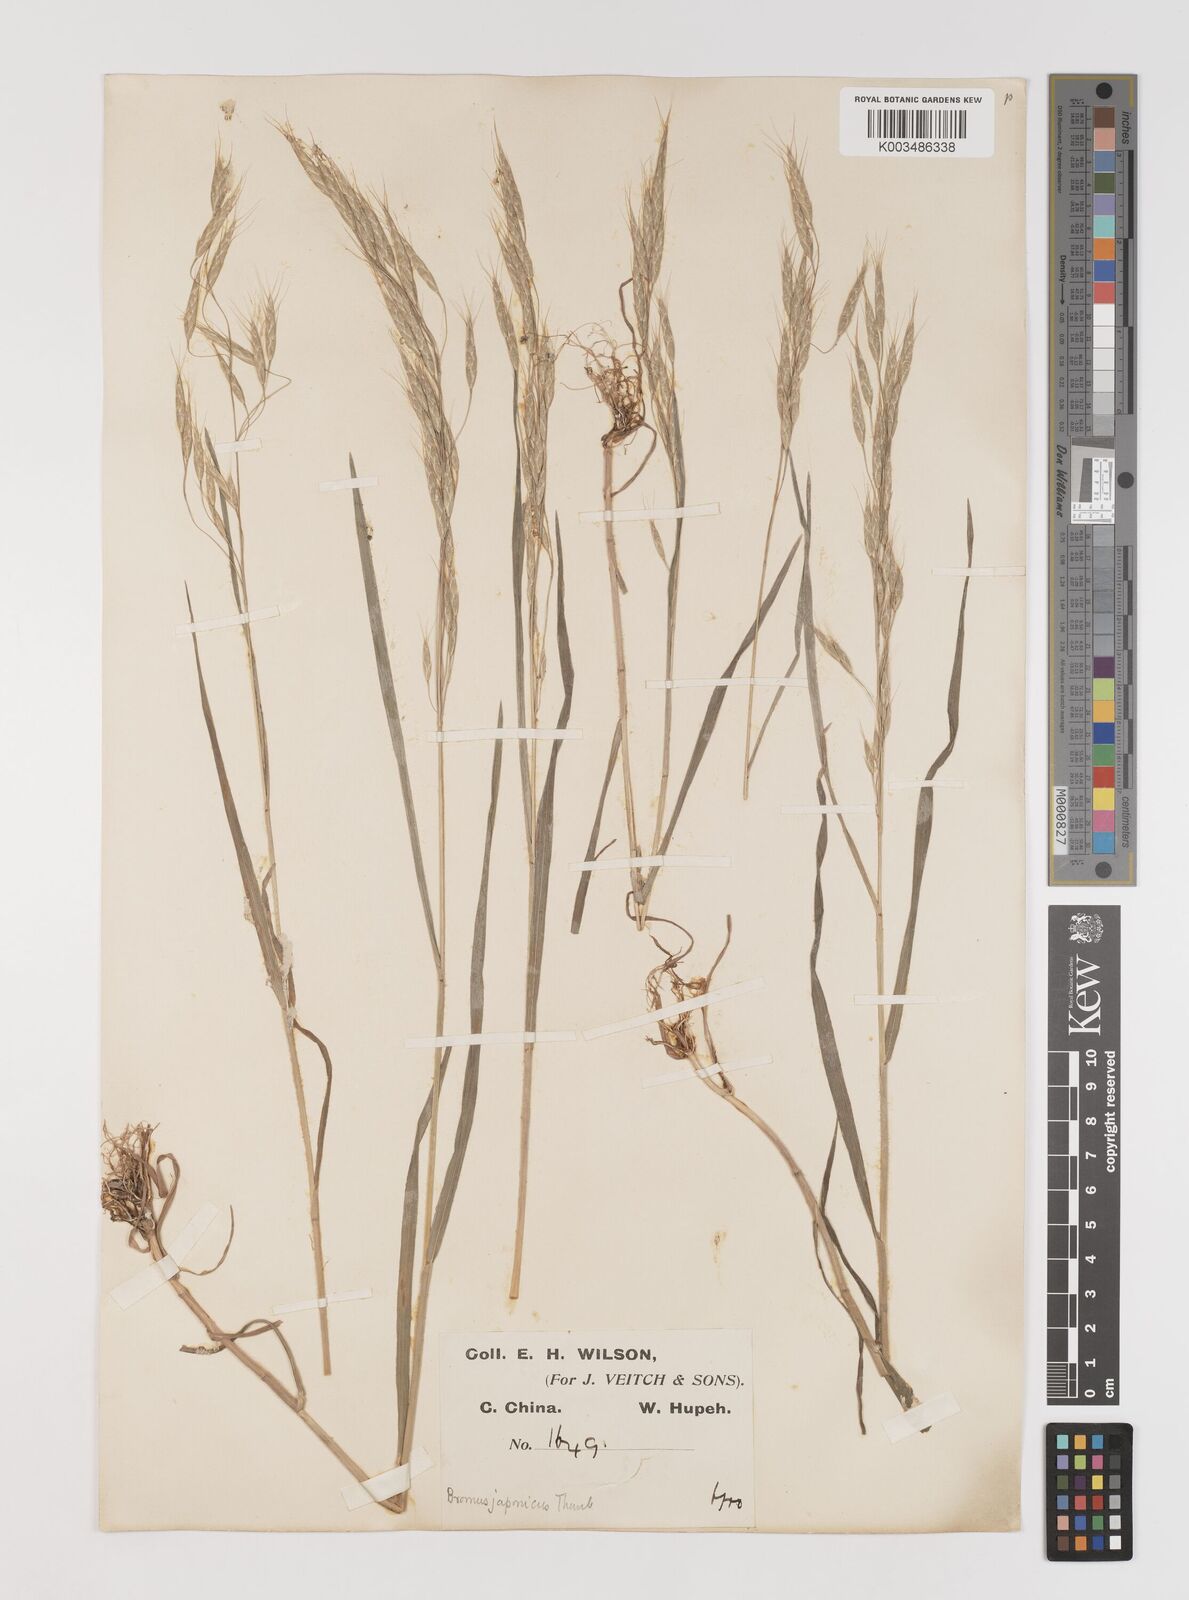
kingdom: Plantae
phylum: Tracheophyta
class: Liliopsida
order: Poales
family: Poaceae
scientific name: Poaceae
